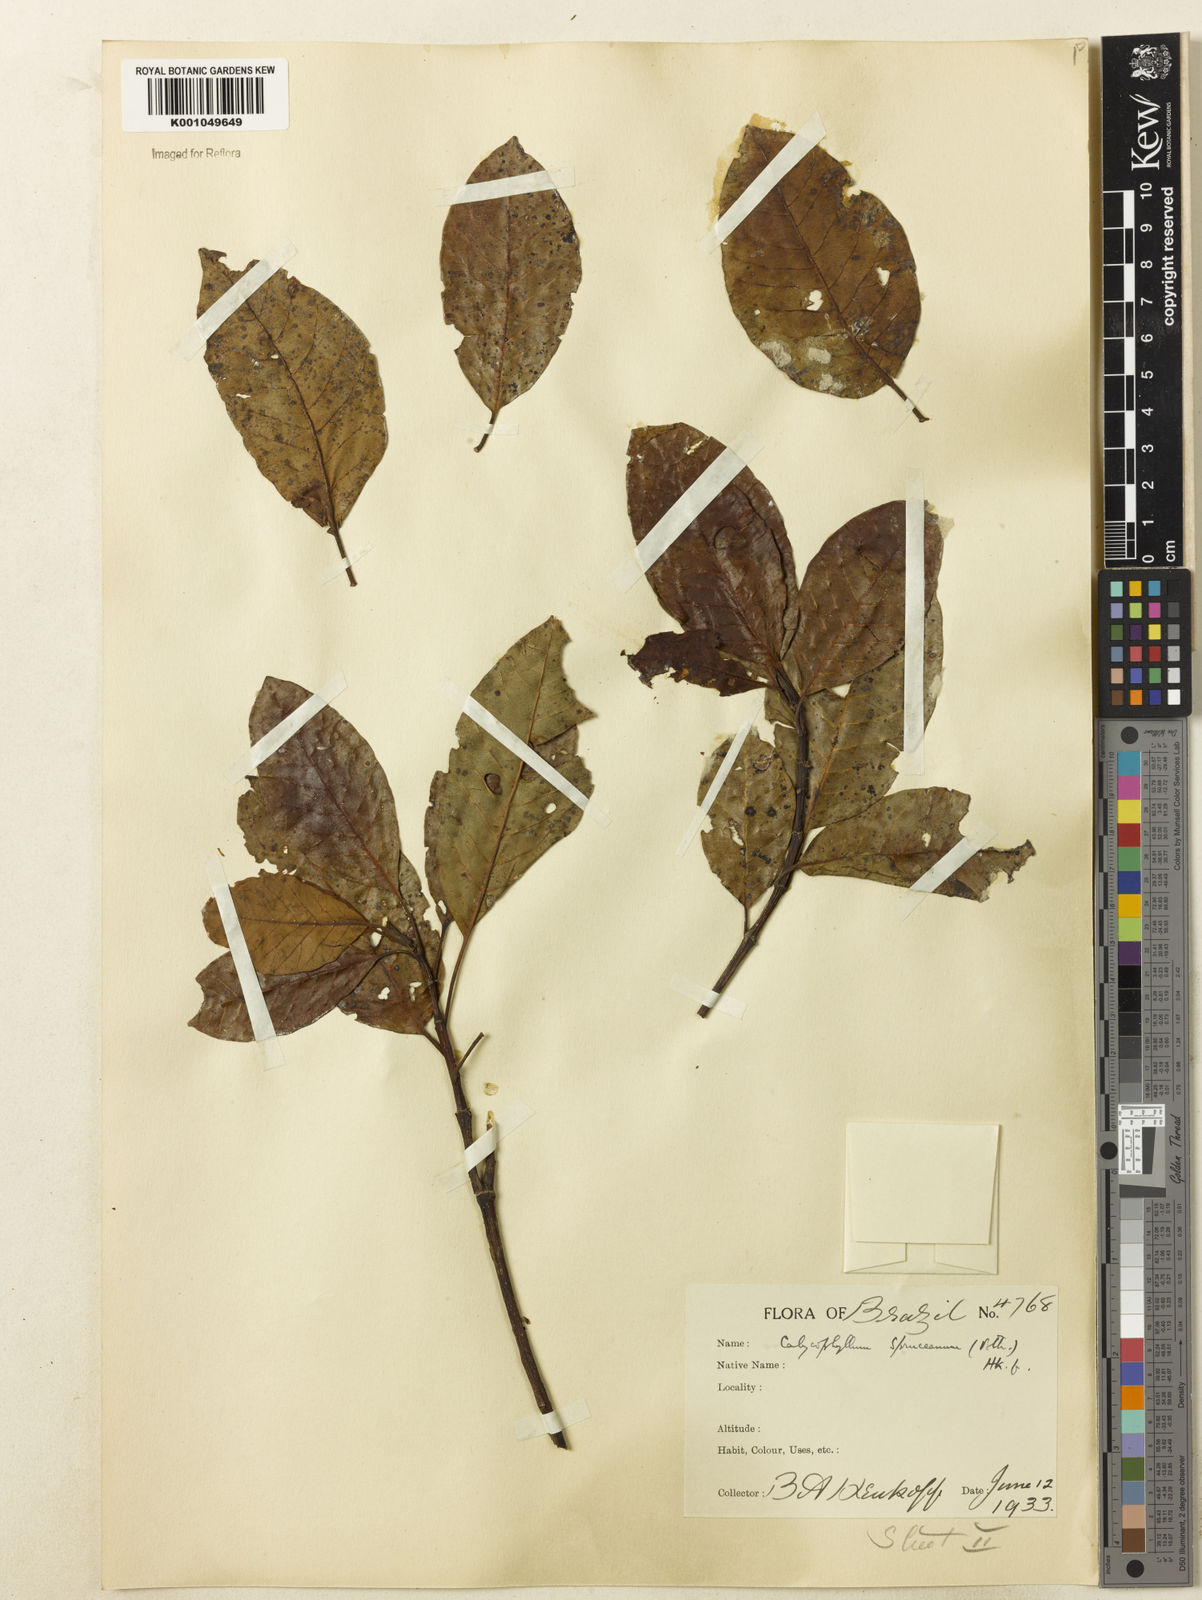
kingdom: Plantae
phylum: Tracheophyta
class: Magnoliopsida
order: Gentianales
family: Rubiaceae
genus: Calycophyllum
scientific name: Calycophyllum spruceanum
